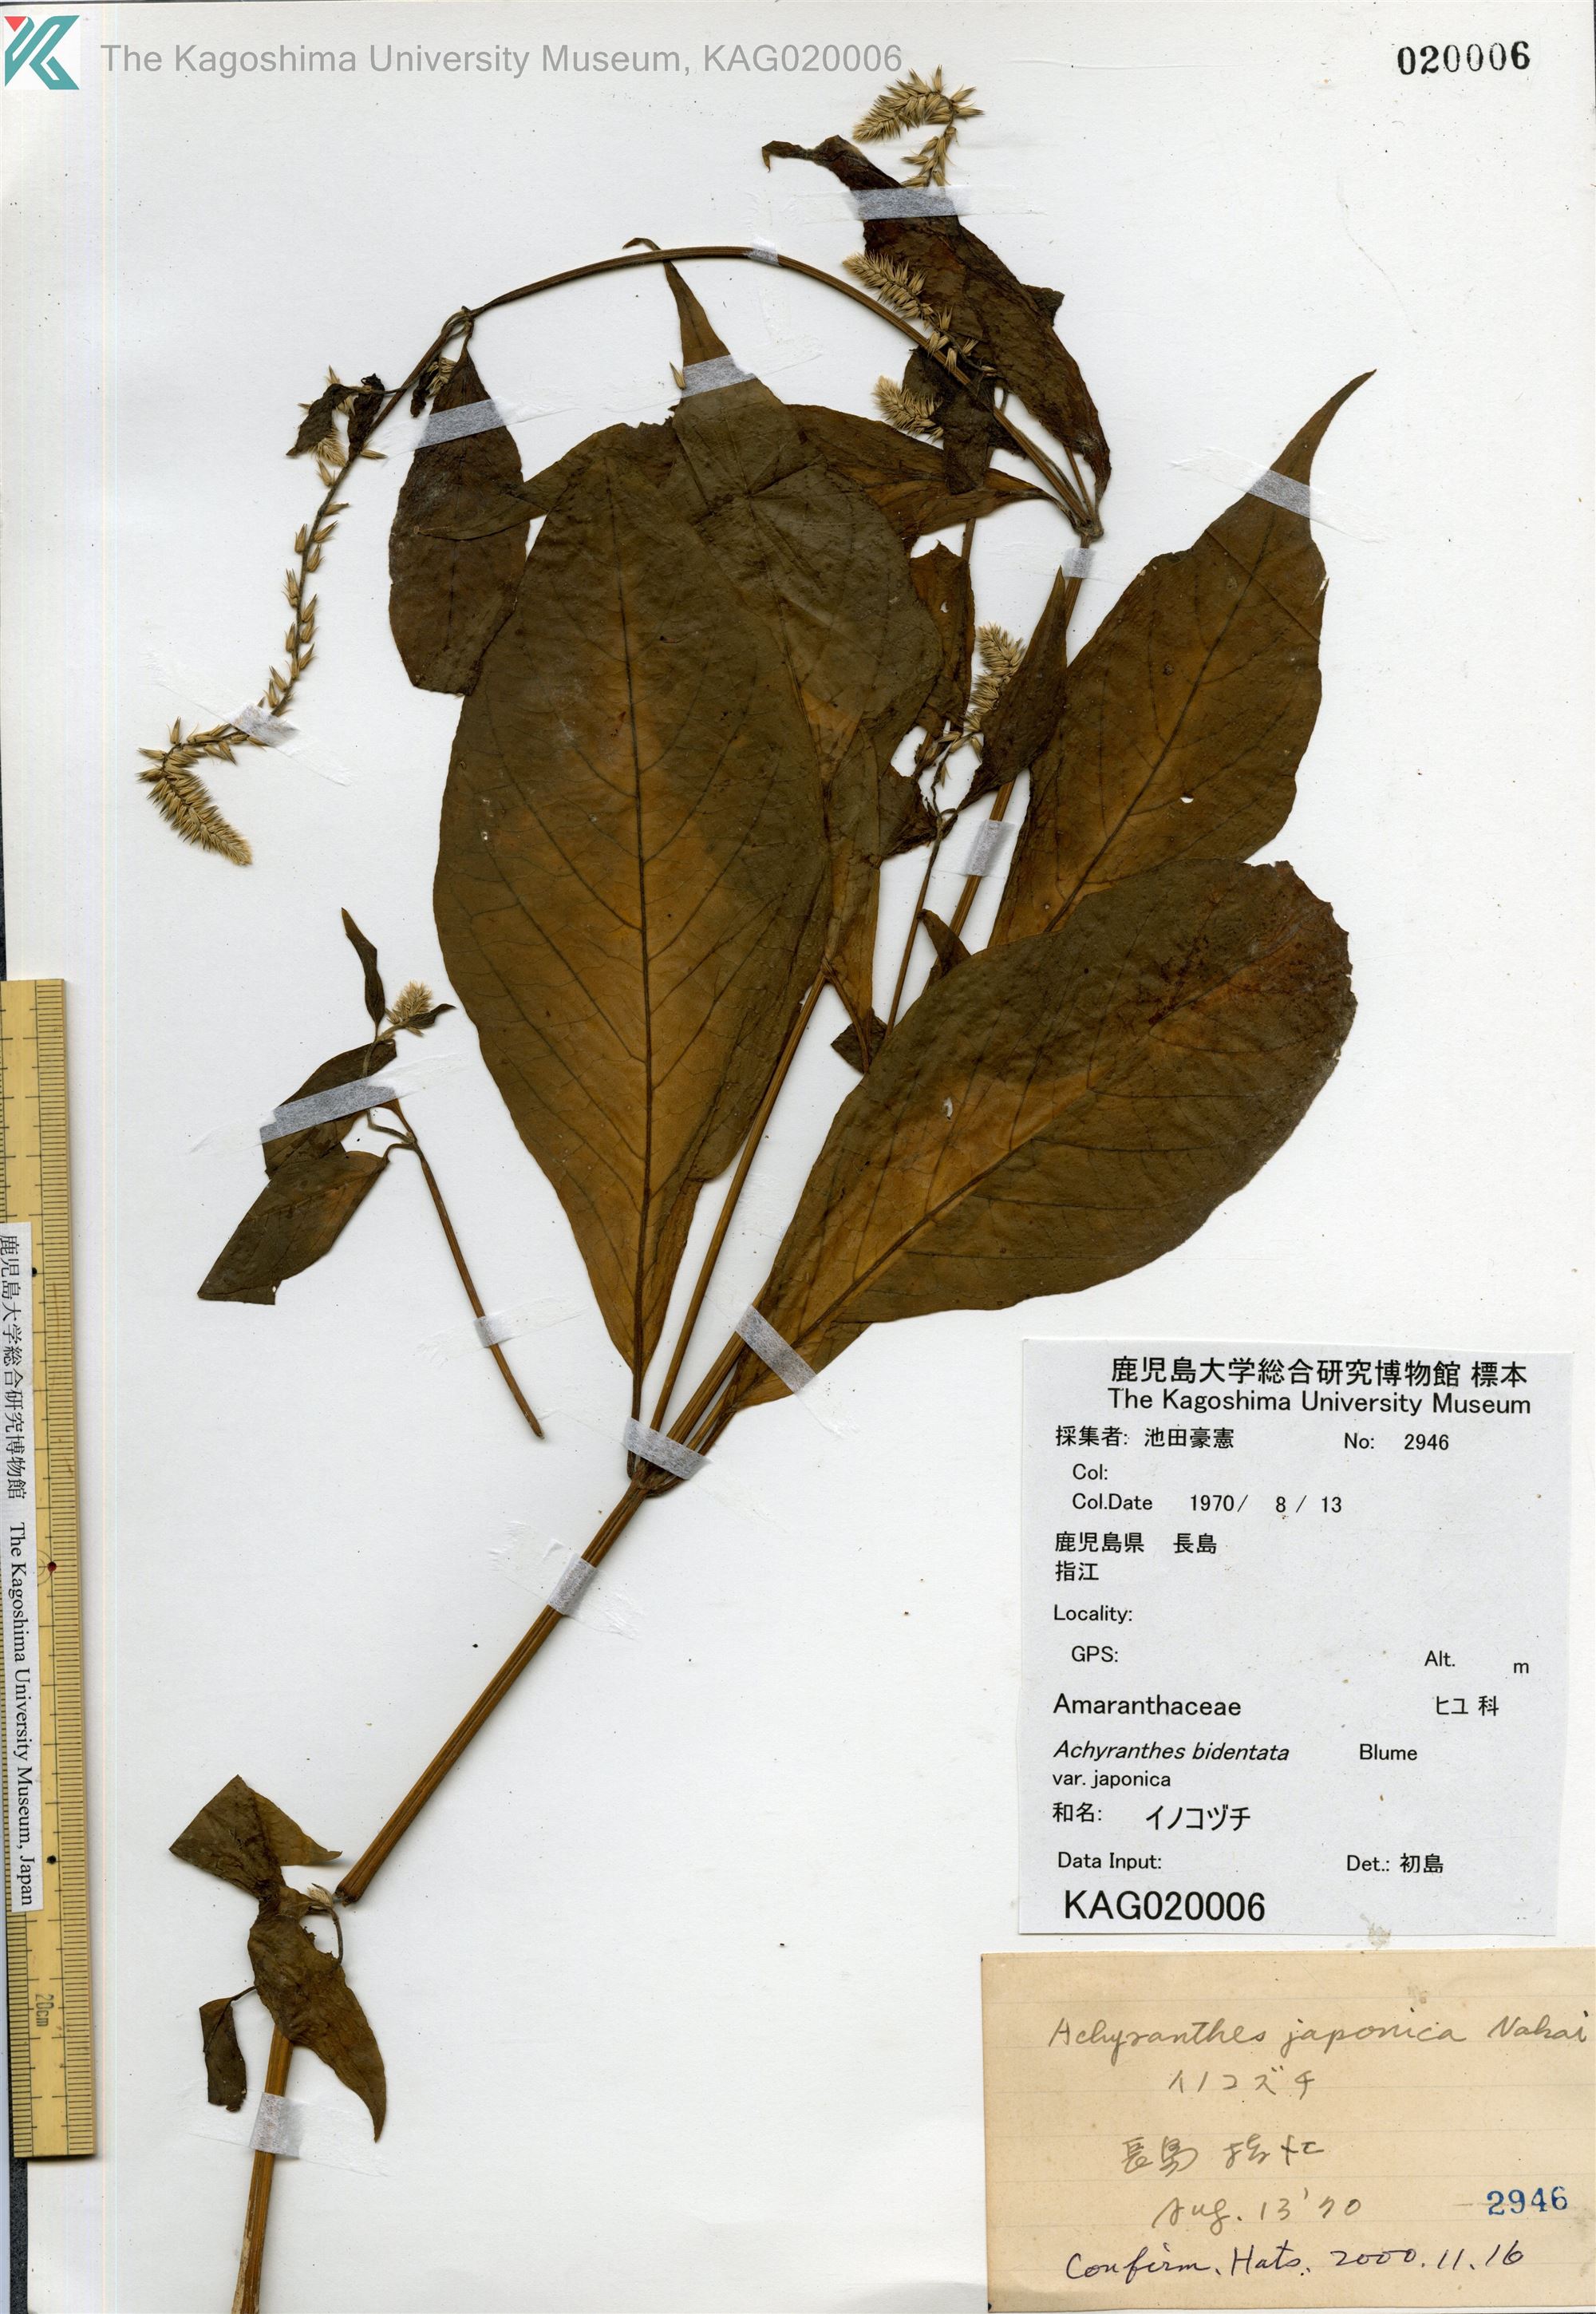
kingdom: Plantae
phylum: Tracheophyta
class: Magnoliopsida
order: Caryophyllales
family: Amaranthaceae
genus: Achyranthes
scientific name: Achyranthes bidentata
